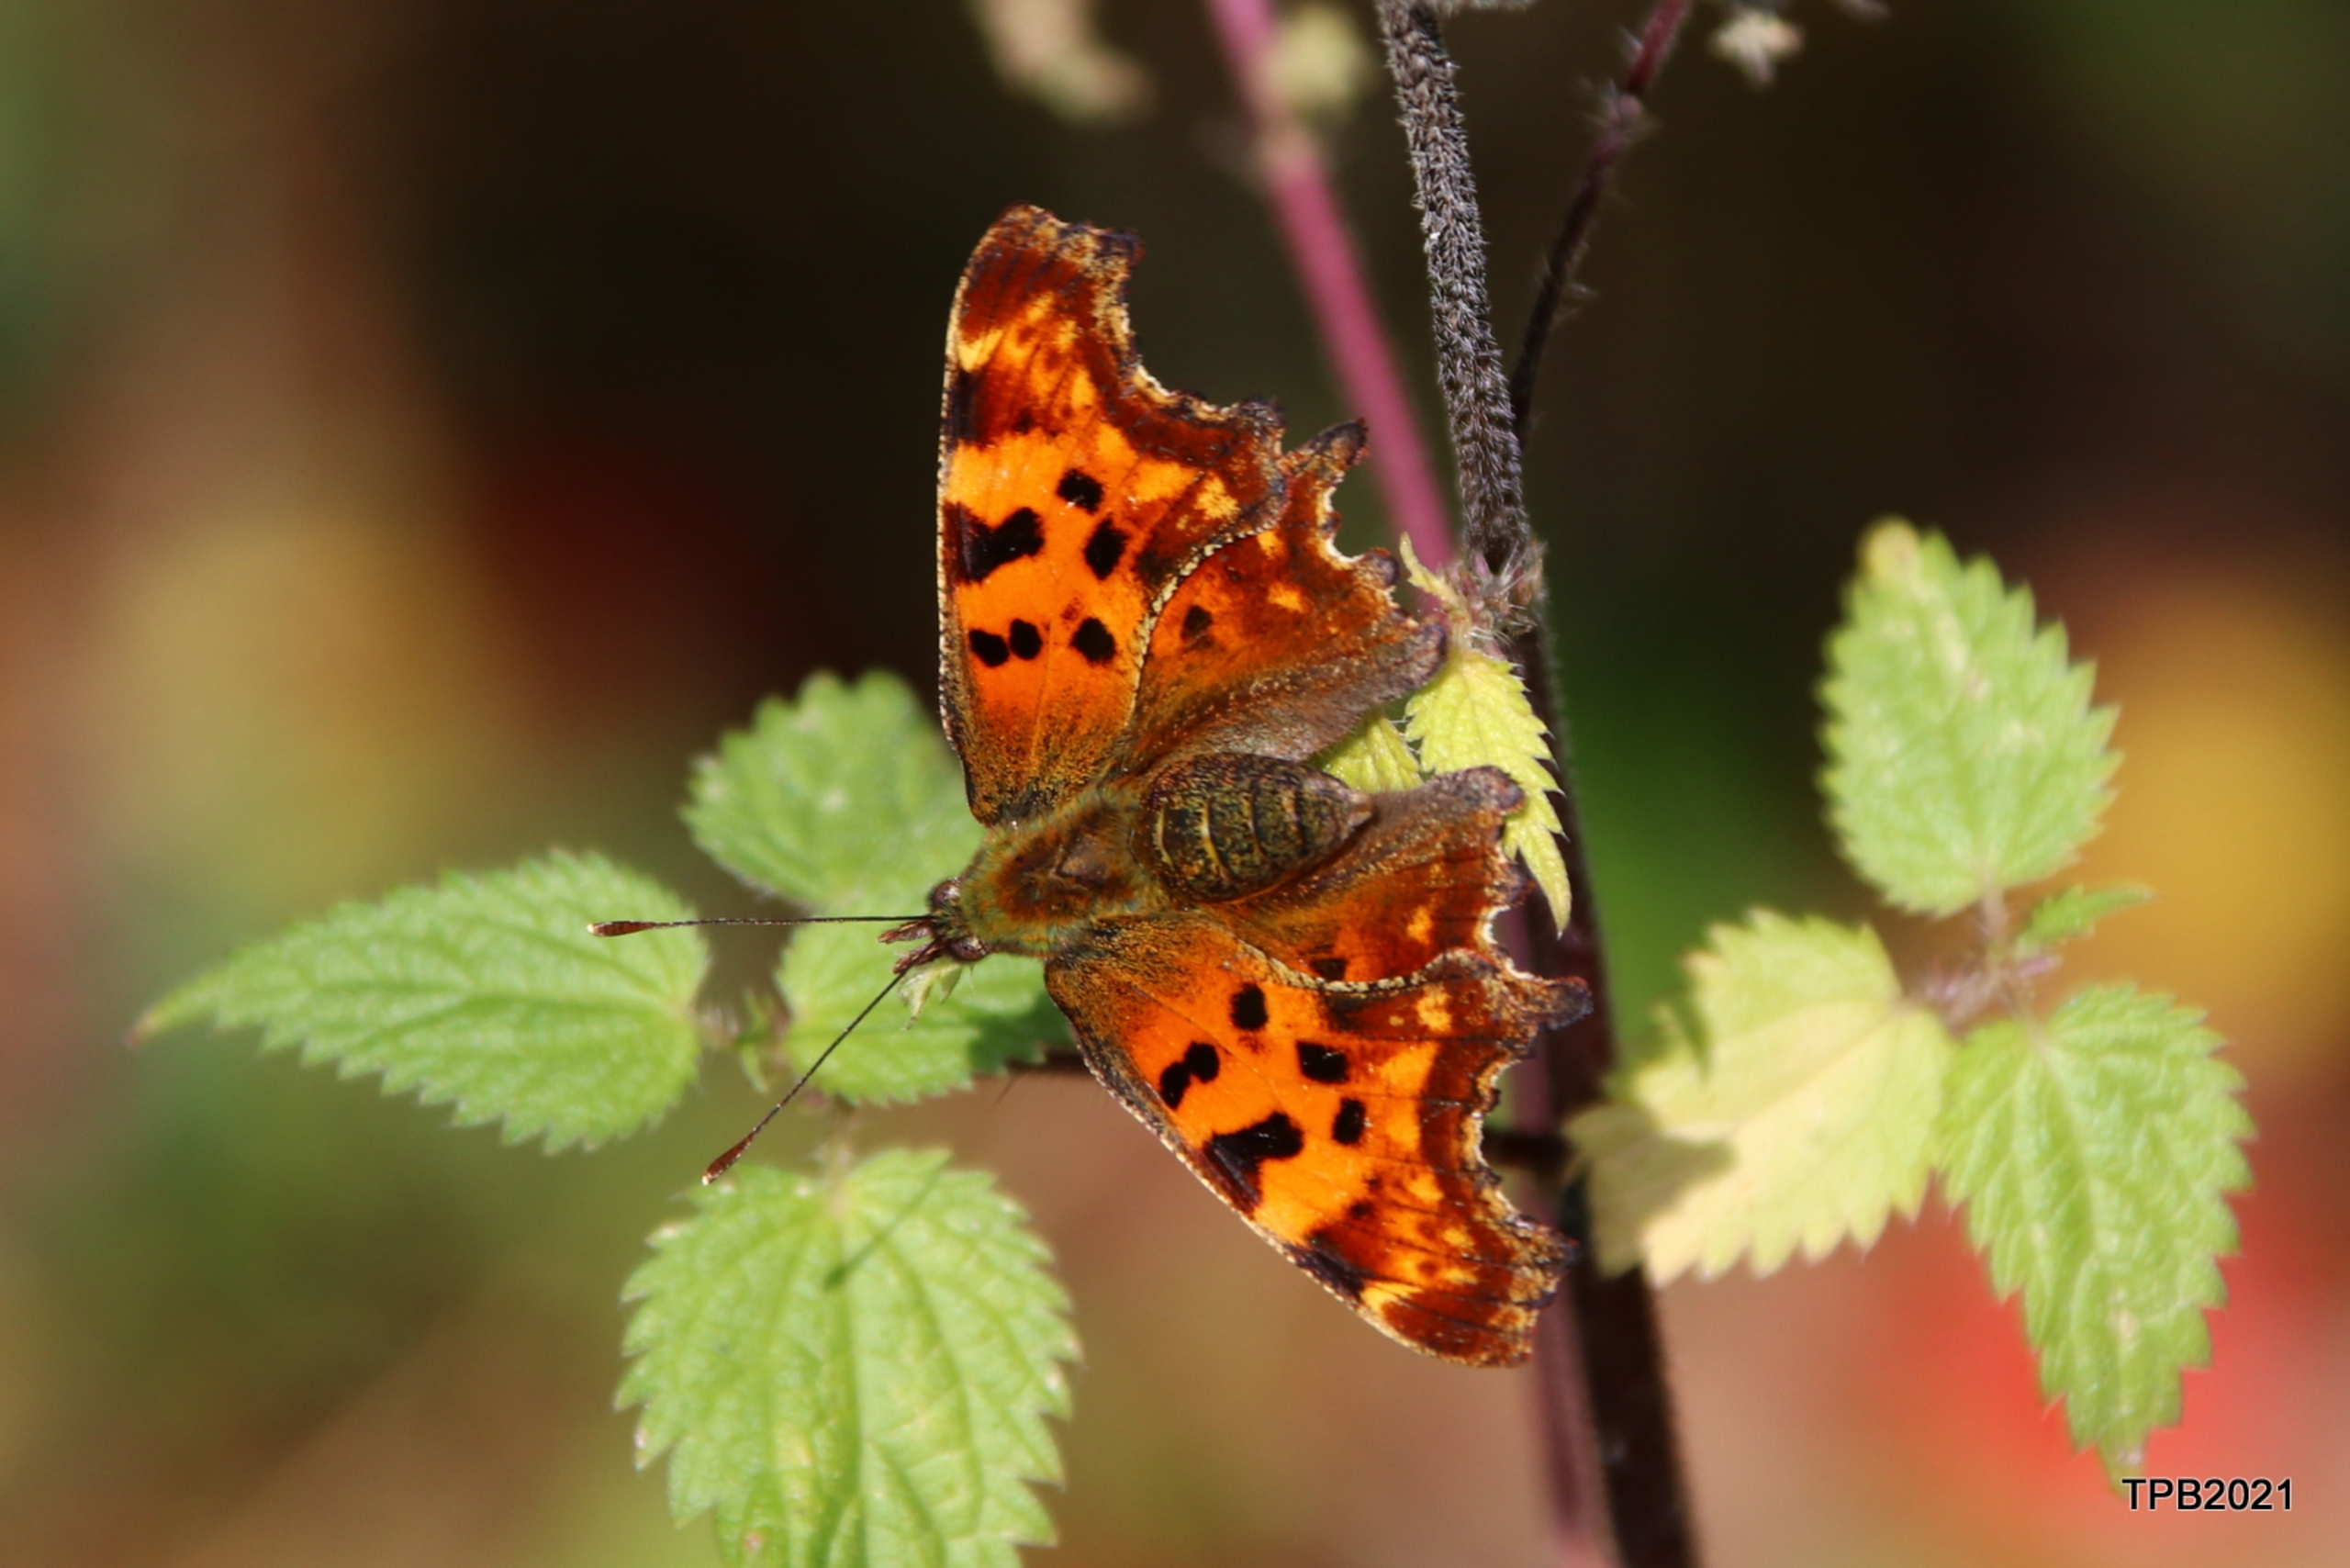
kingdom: Animalia
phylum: Arthropoda
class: Insecta
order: Lepidoptera
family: Nymphalidae
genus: Polygonia
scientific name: Polygonia c-album
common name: Det hvide C
